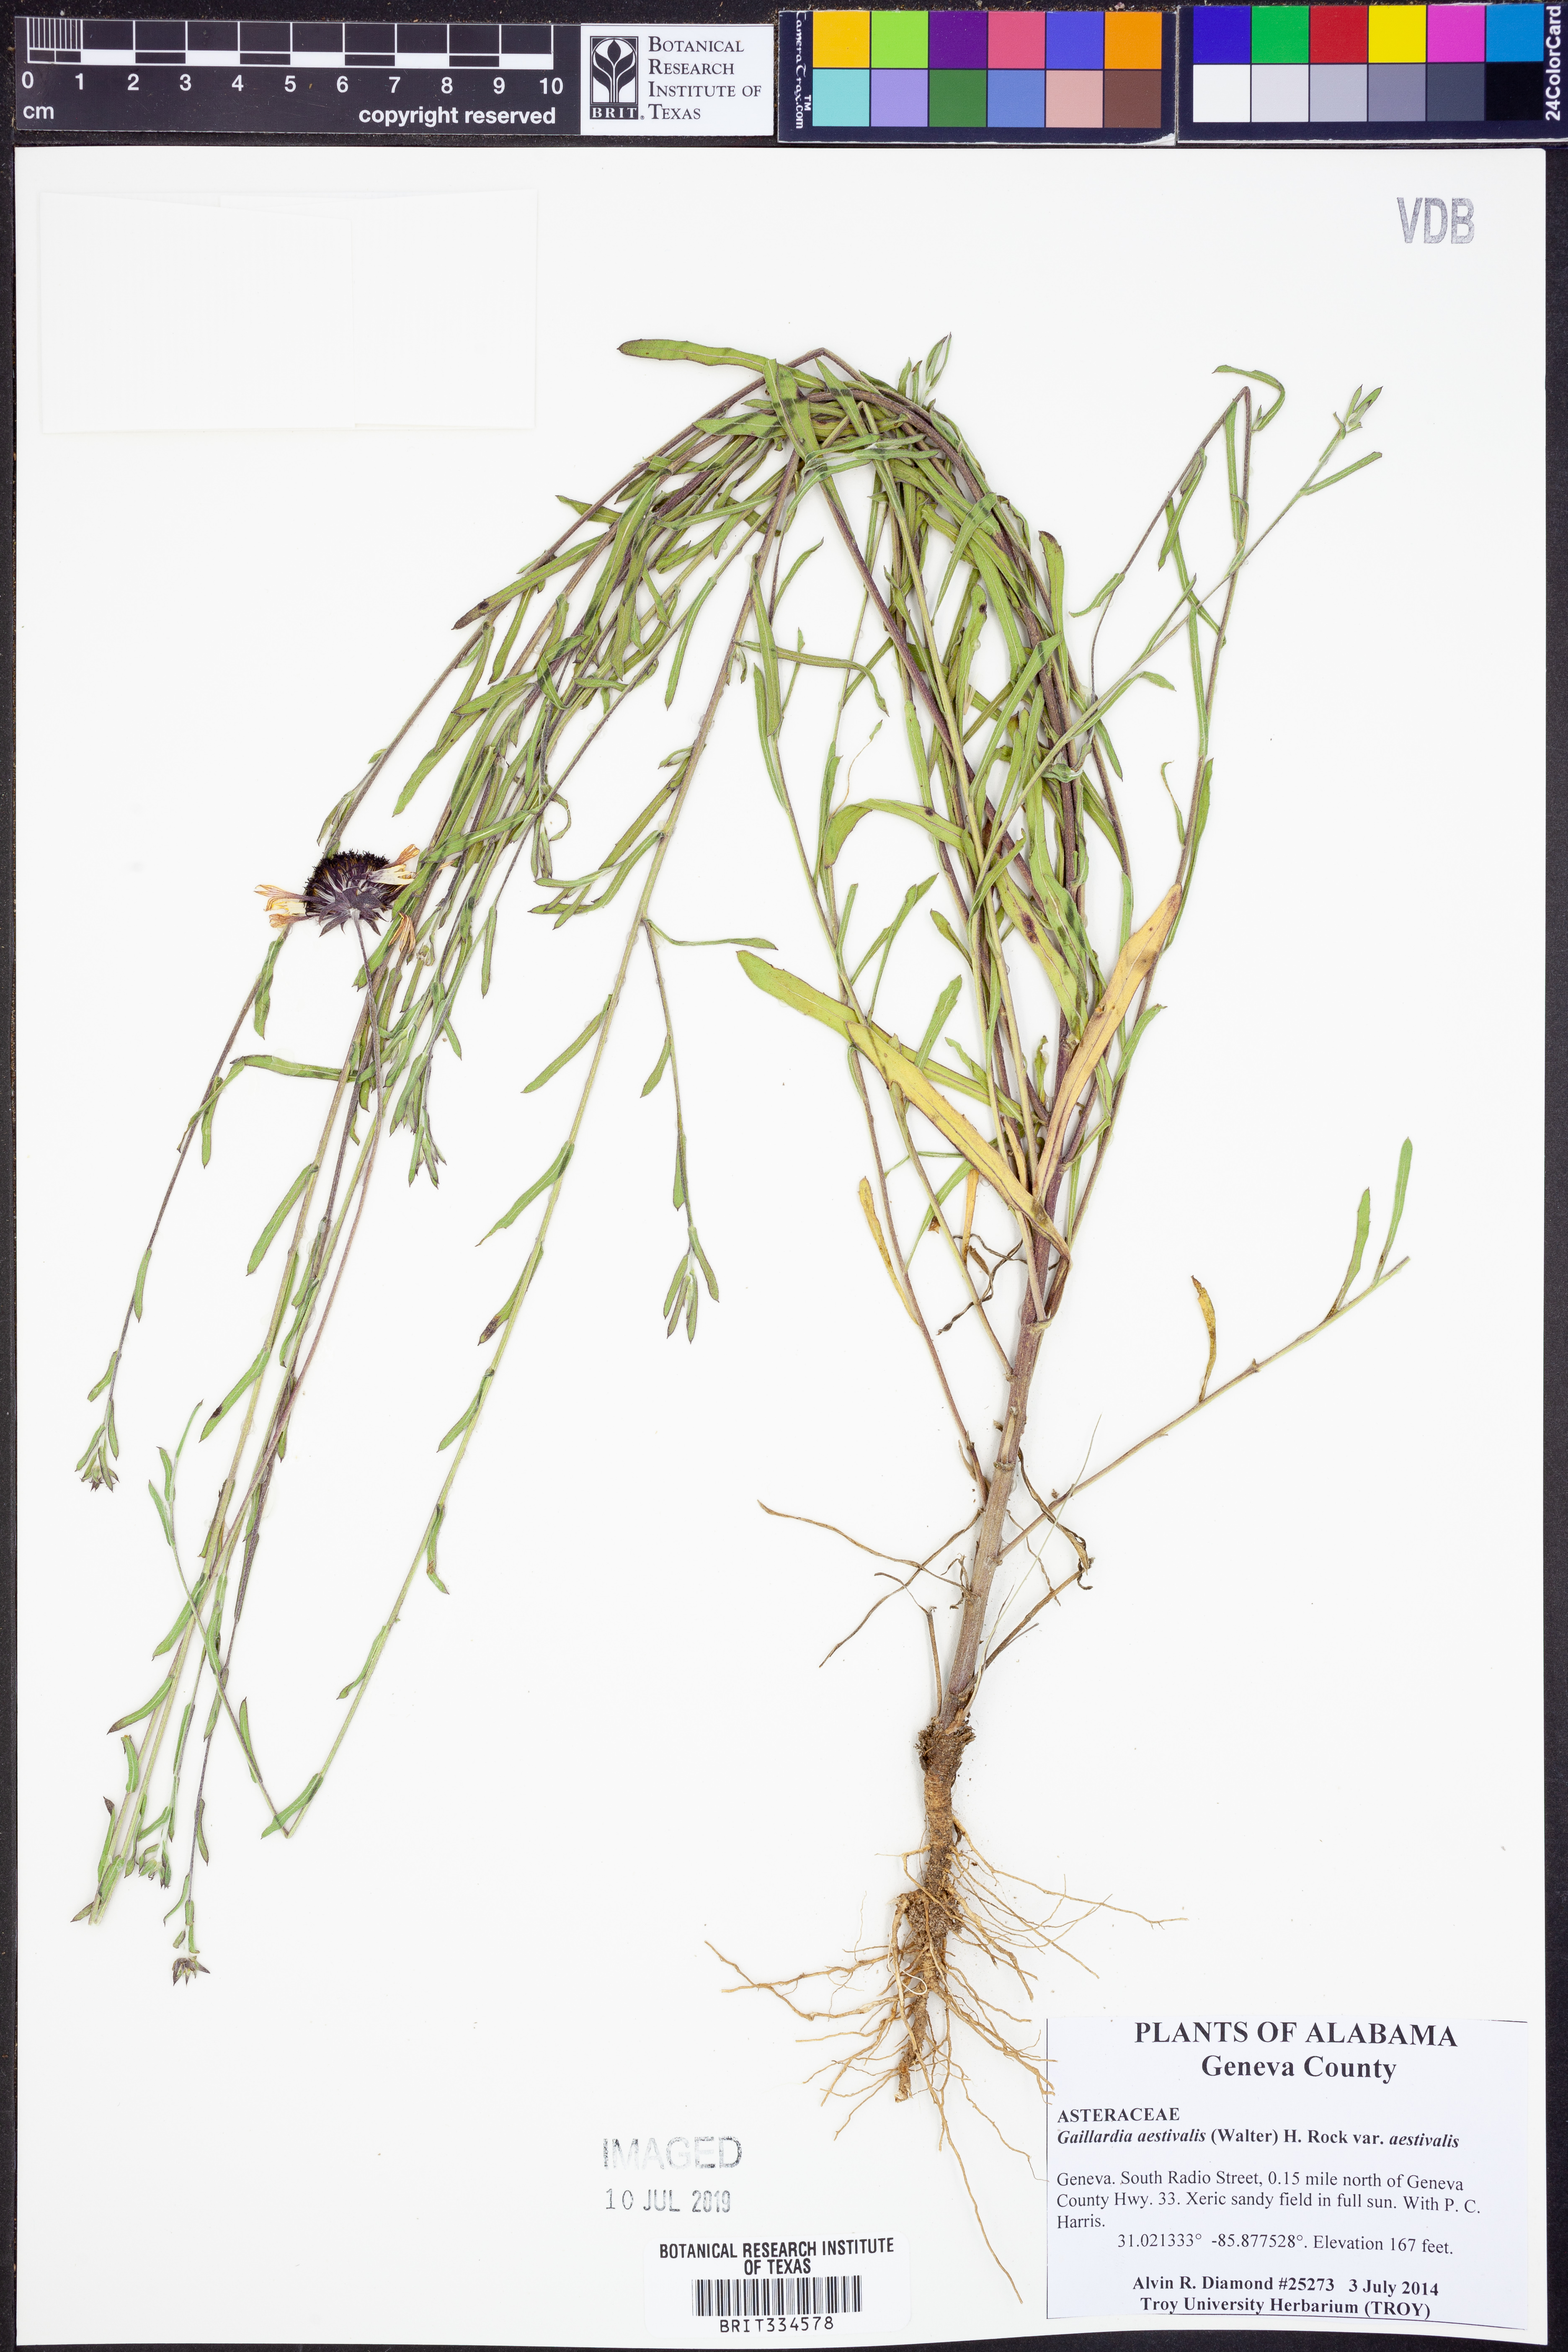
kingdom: Plantae
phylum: Tracheophyta
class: Magnoliopsida
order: Asterales
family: Asteraceae
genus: Gaillardia
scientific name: Gaillardia aestivalis
